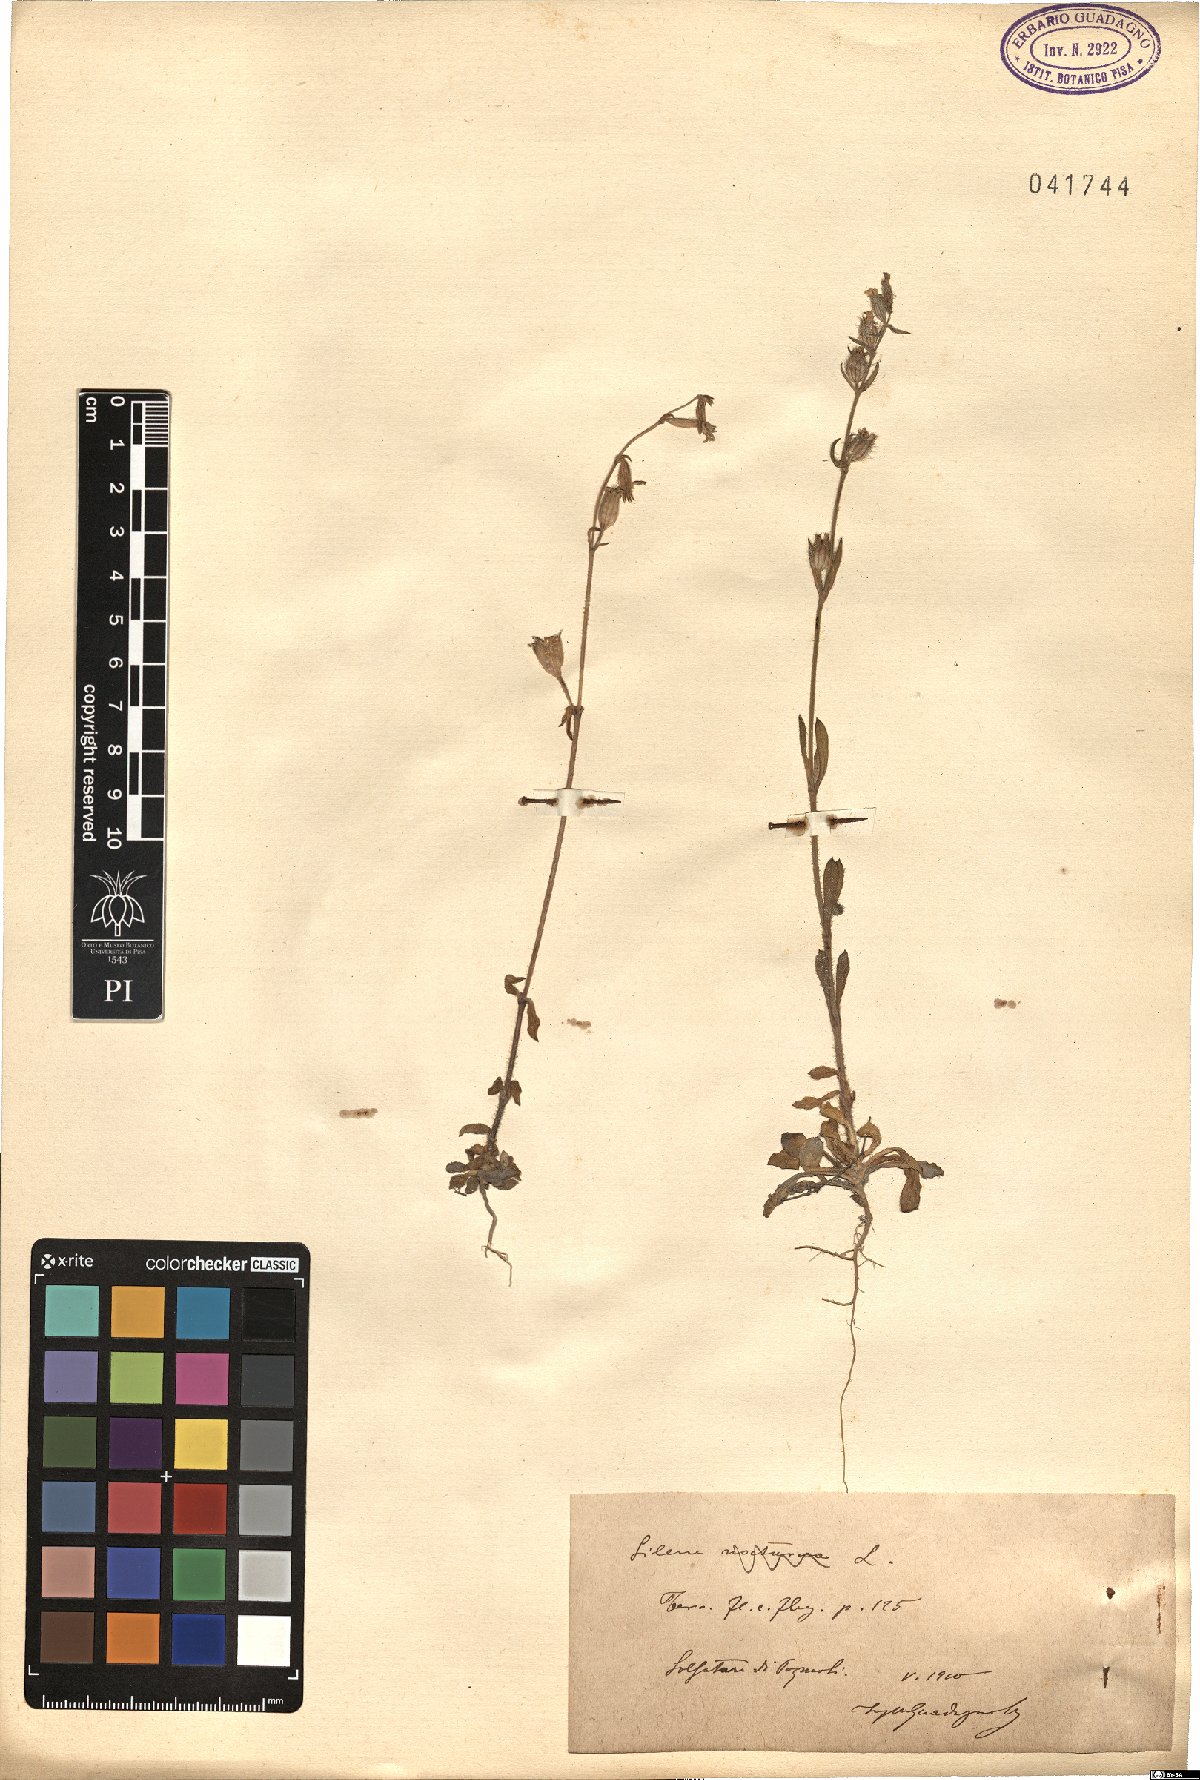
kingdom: Plantae
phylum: Tracheophyta
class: Magnoliopsida
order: Caryophyllales
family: Caryophyllaceae
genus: Silene
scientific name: Silene
